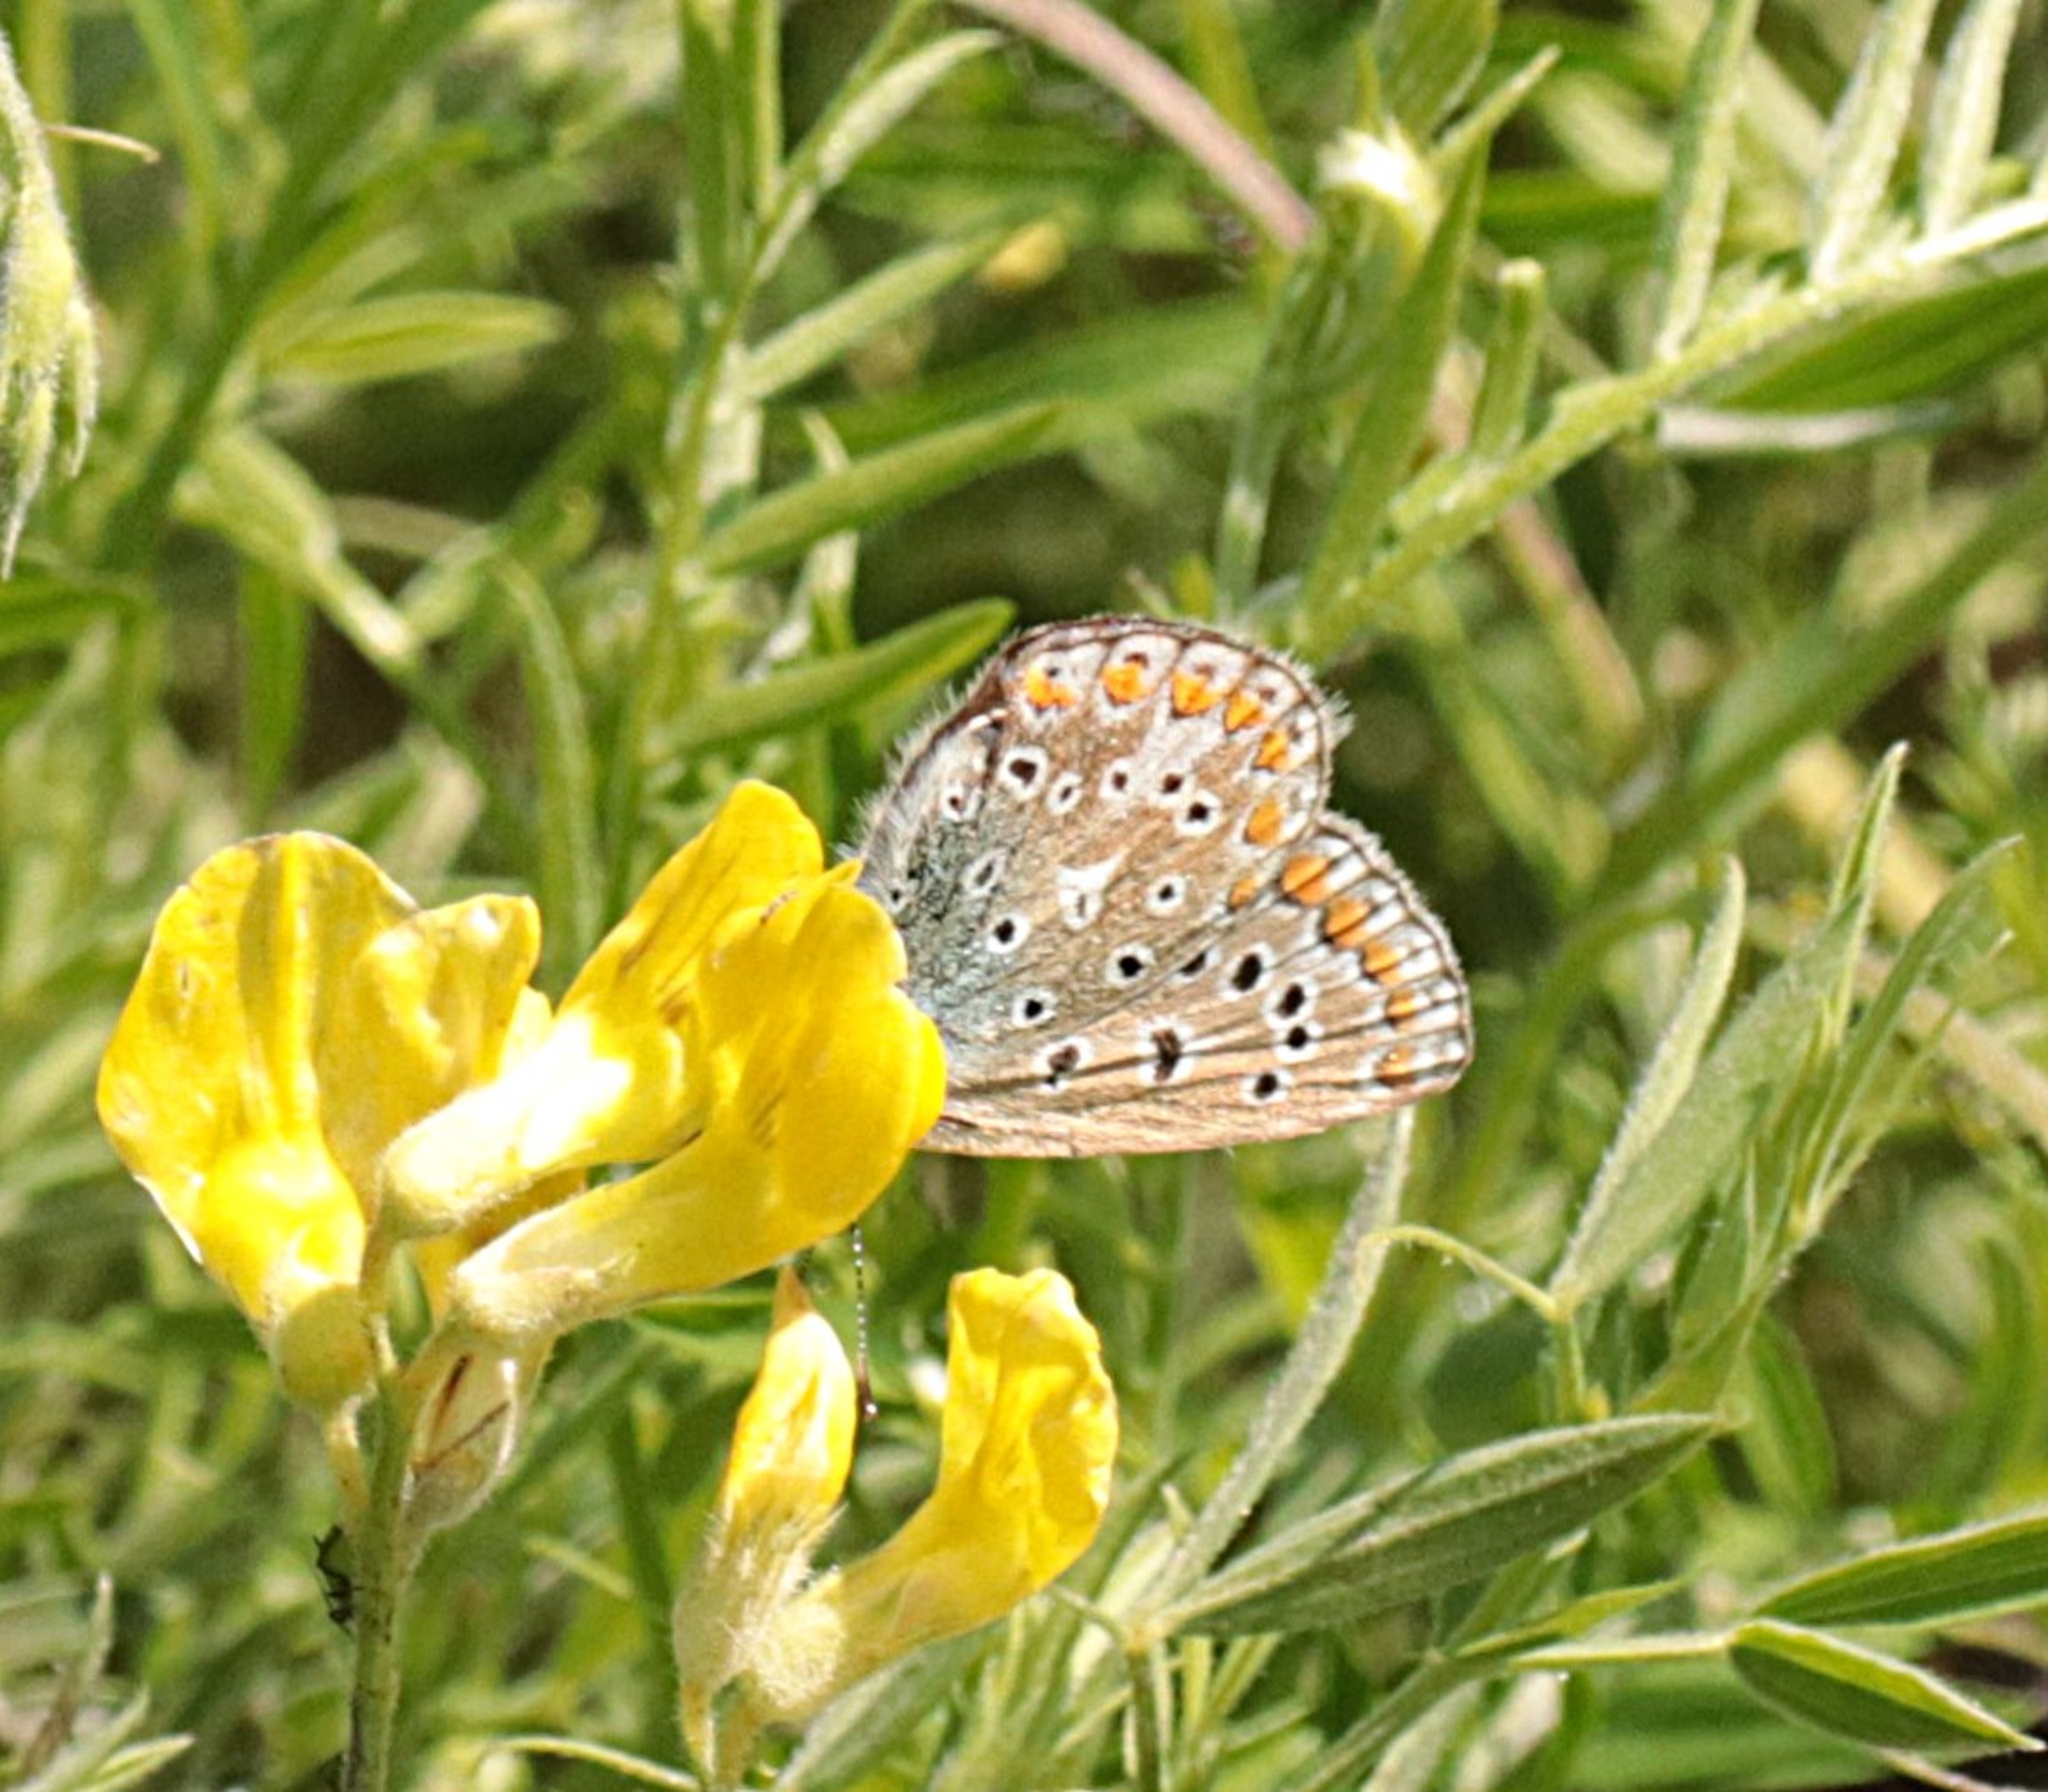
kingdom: Animalia
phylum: Arthropoda
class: Insecta
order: Lepidoptera
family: Lycaenidae
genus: Polyommatus
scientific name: Polyommatus icarus
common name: Almindelig blåfugl
